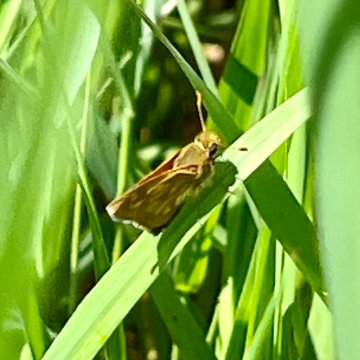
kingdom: Animalia
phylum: Arthropoda
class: Insecta
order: Lepidoptera
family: Hesperiidae
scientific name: Hesperiidae
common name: Skippers
